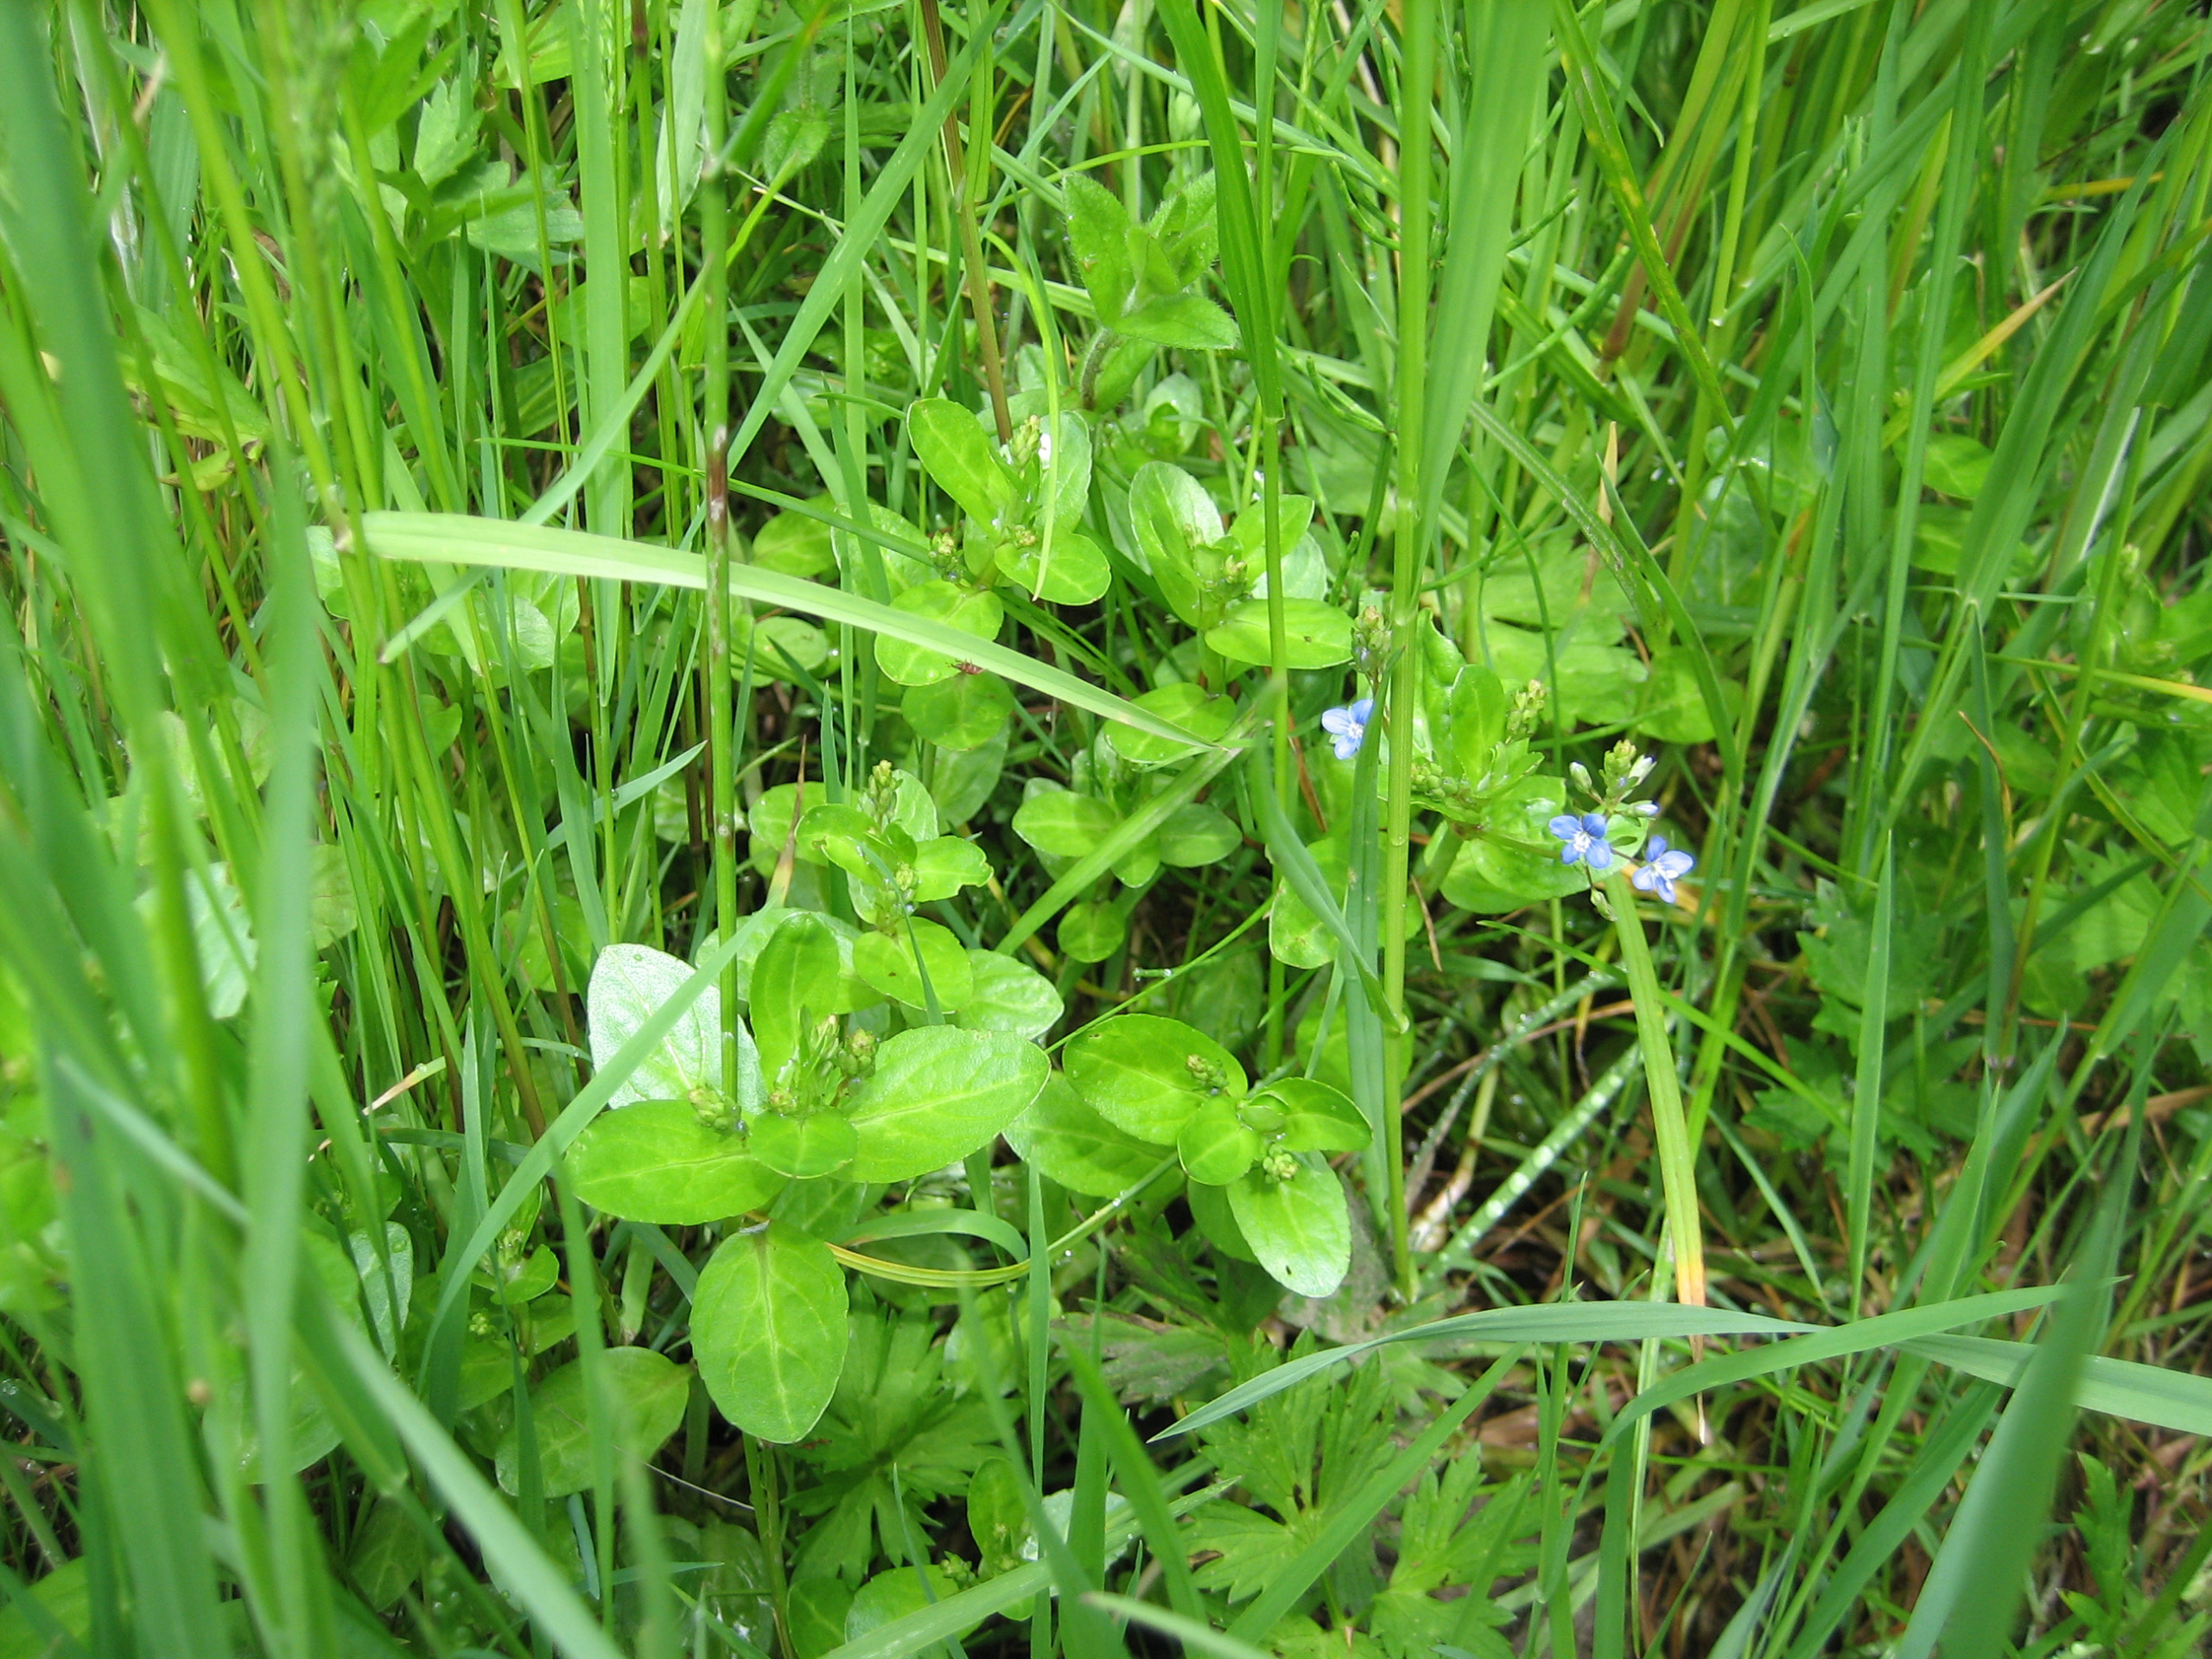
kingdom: Plantae
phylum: Tracheophyta
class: Magnoliopsida
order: Lamiales
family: Plantaginaceae
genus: Veronica
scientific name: Veronica beccabunga
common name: Tykbladet ærenpris
